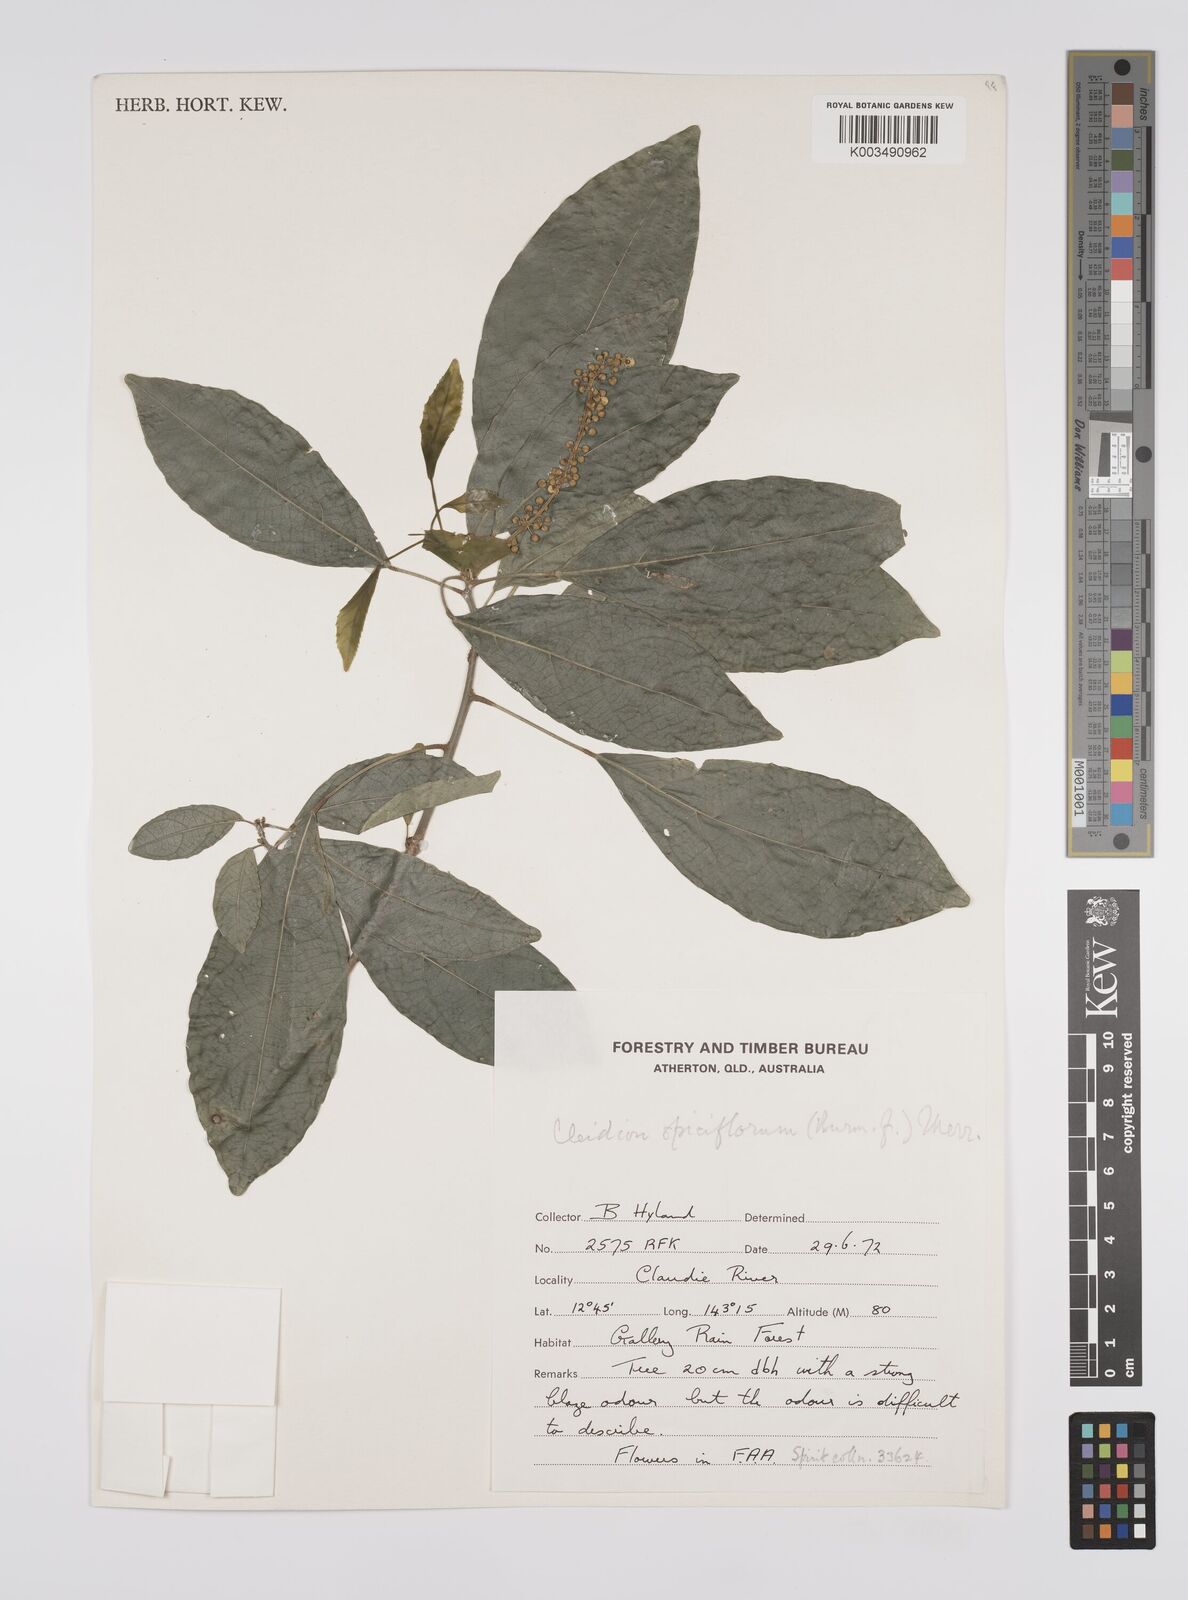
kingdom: Plantae
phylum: Tracheophyta
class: Magnoliopsida
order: Malpighiales
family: Euphorbiaceae
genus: Cleidion
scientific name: Cleidion javanicum
